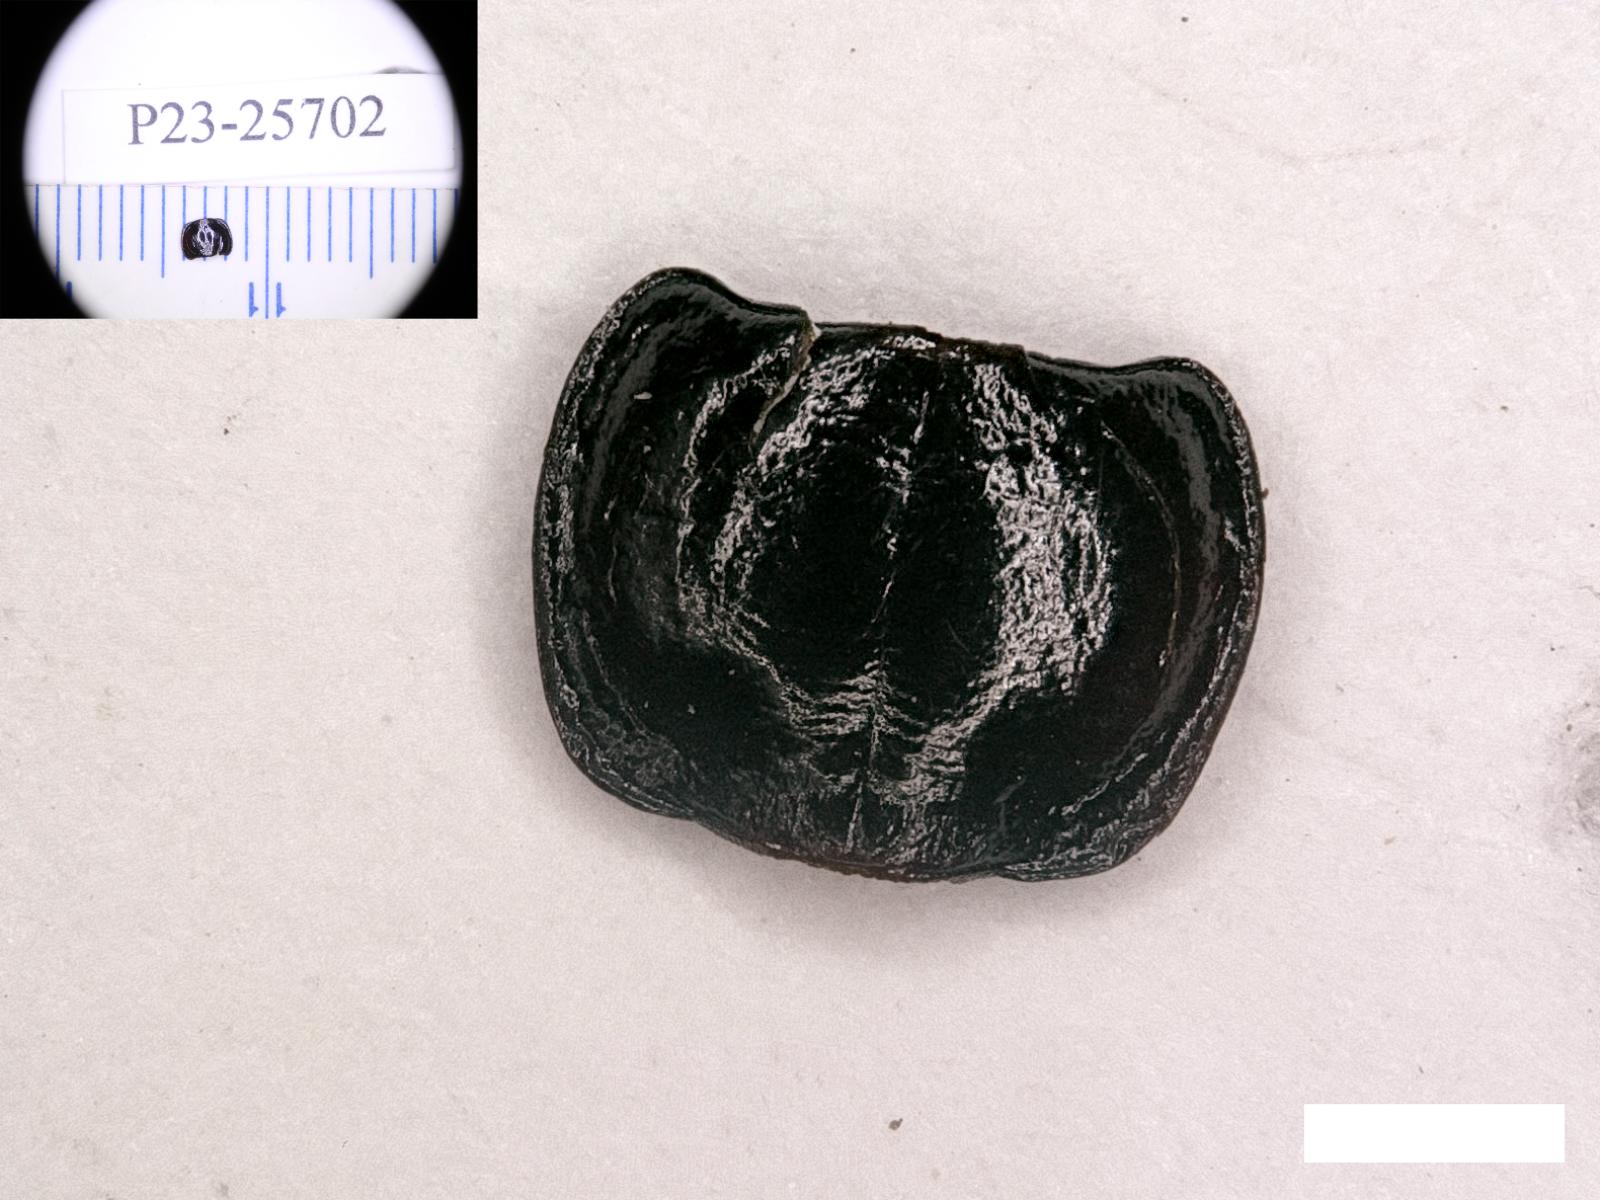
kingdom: Animalia
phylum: Arthropoda
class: Insecta
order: Coleoptera
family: Carabidae
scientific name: Carabidae
